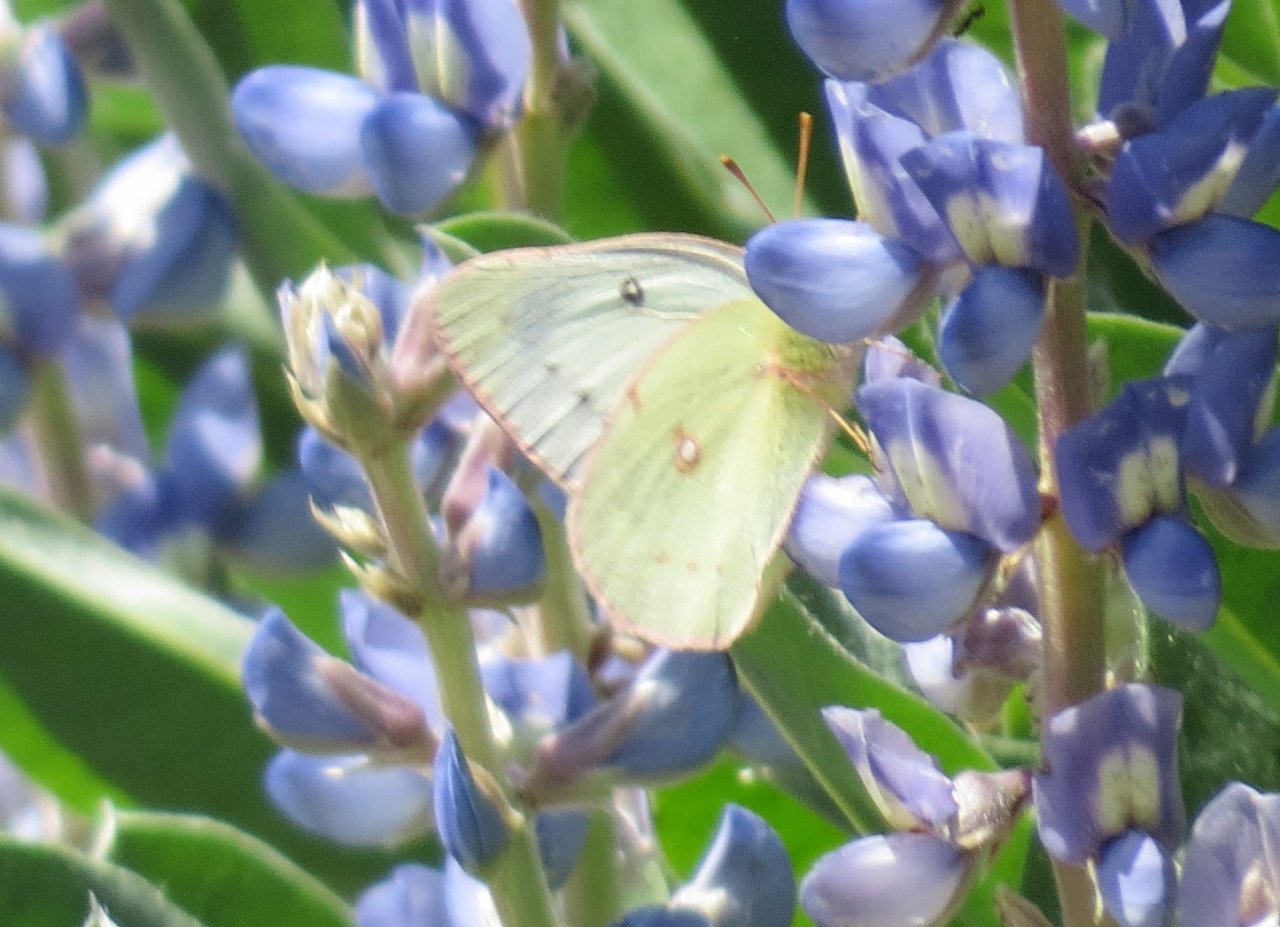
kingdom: Animalia
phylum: Arthropoda
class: Insecta
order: Lepidoptera
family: Pieridae
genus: Colias
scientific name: Colias
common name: Clouded Yellows
